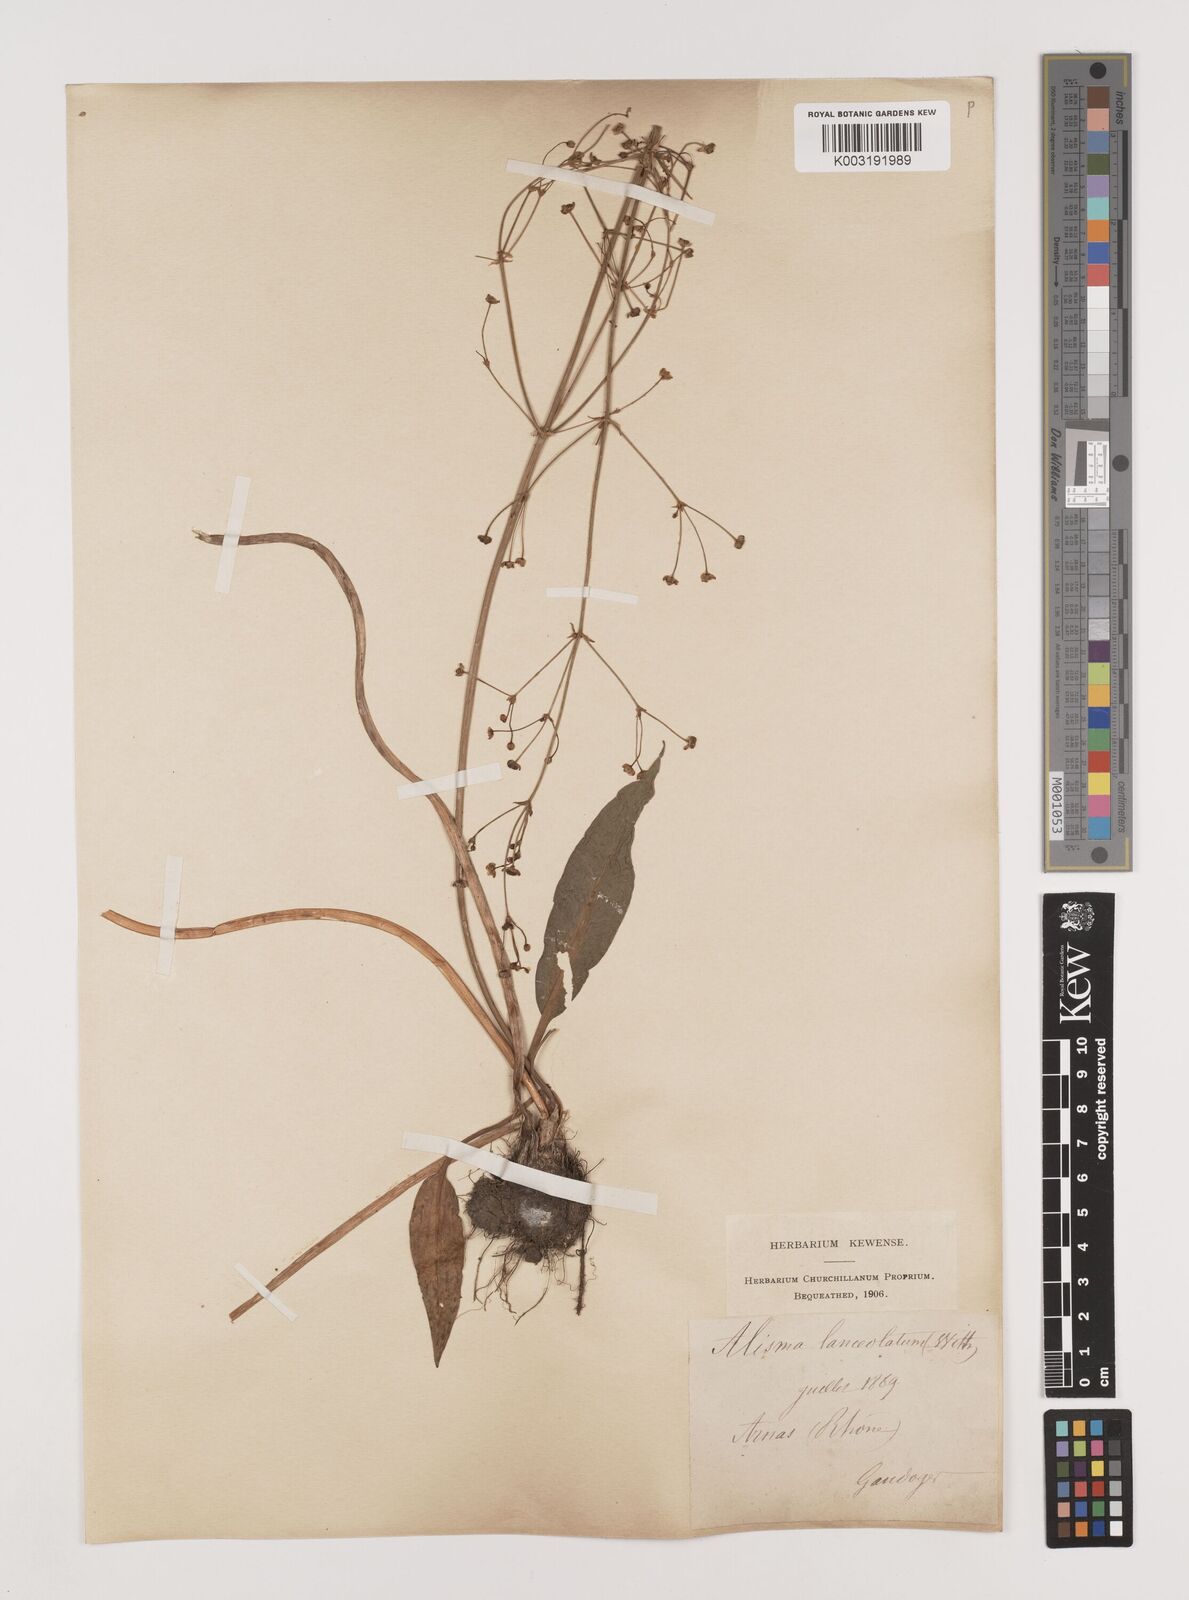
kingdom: Plantae
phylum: Tracheophyta
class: Liliopsida
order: Alismatales
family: Alismataceae
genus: Alisma
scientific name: Alisma lanceolatum
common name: Narrow-leaved water-plantain
